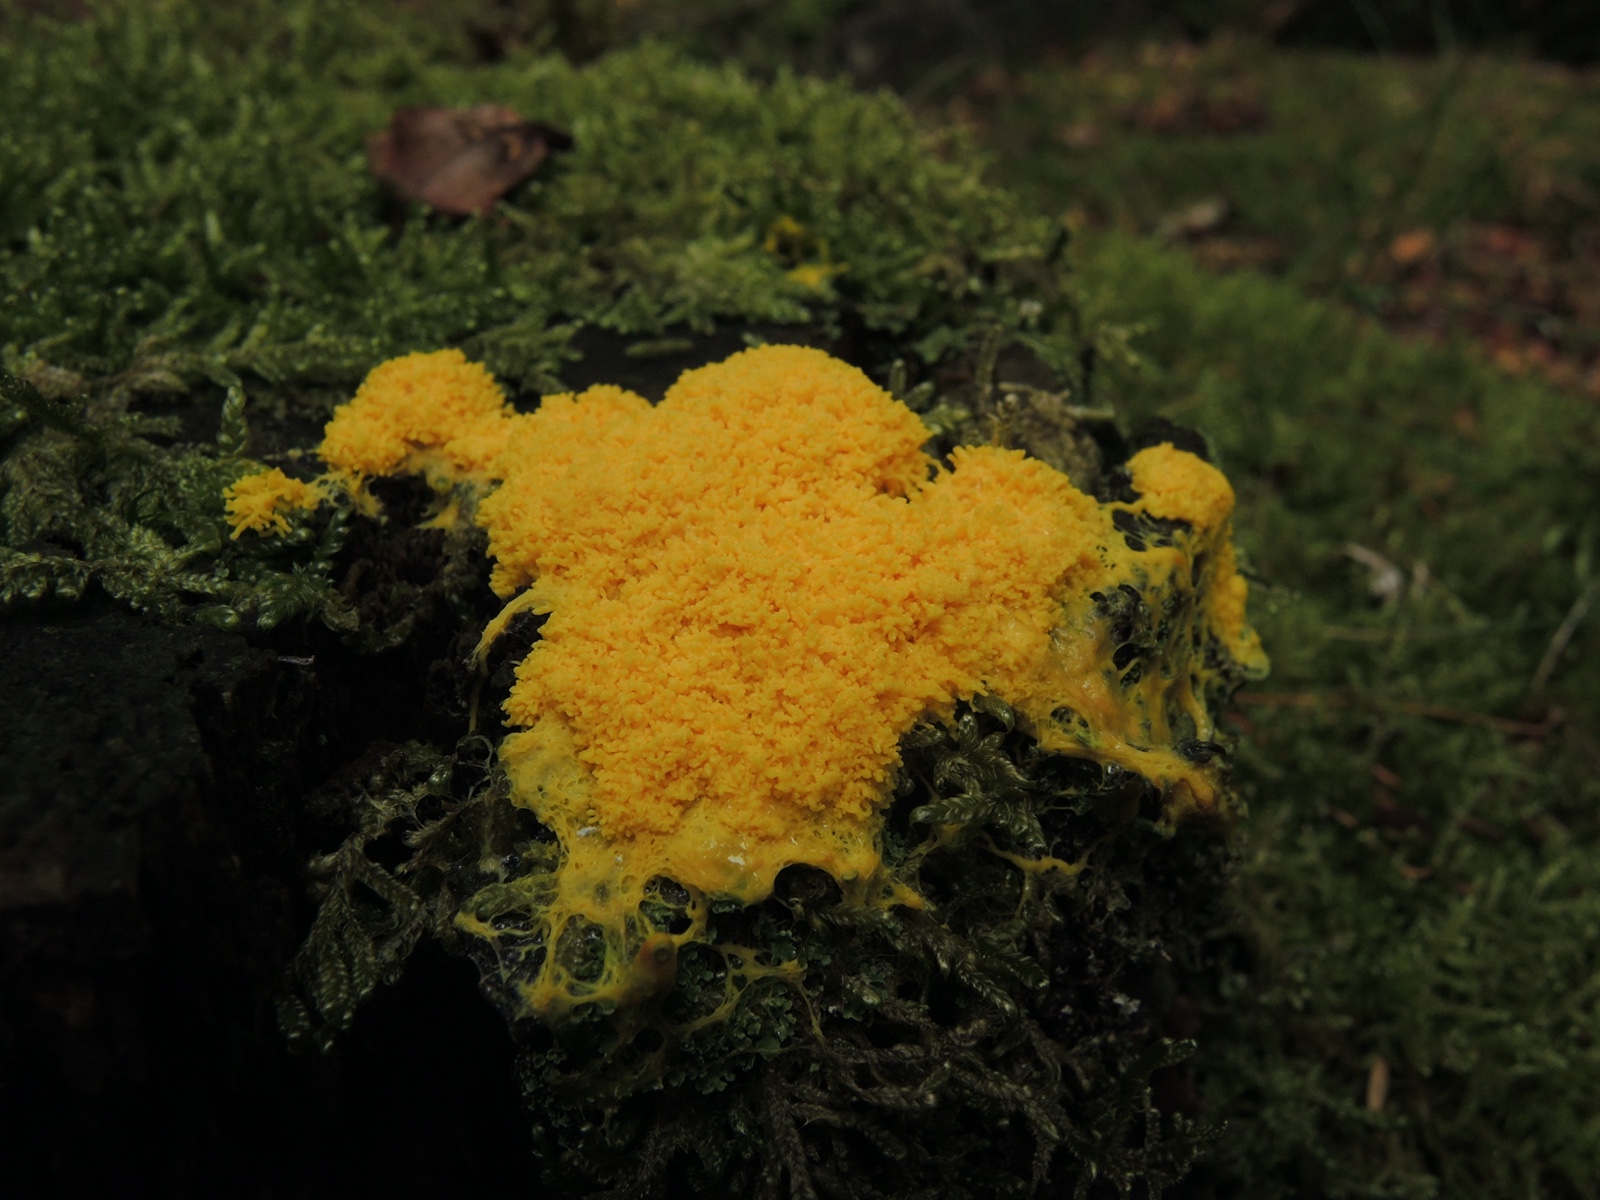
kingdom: Protozoa
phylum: Mycetozoa
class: Myxomycetes
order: Physarales
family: Physaraceae
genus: Fuligo
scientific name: Fuligo septica
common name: gul troldsmør
